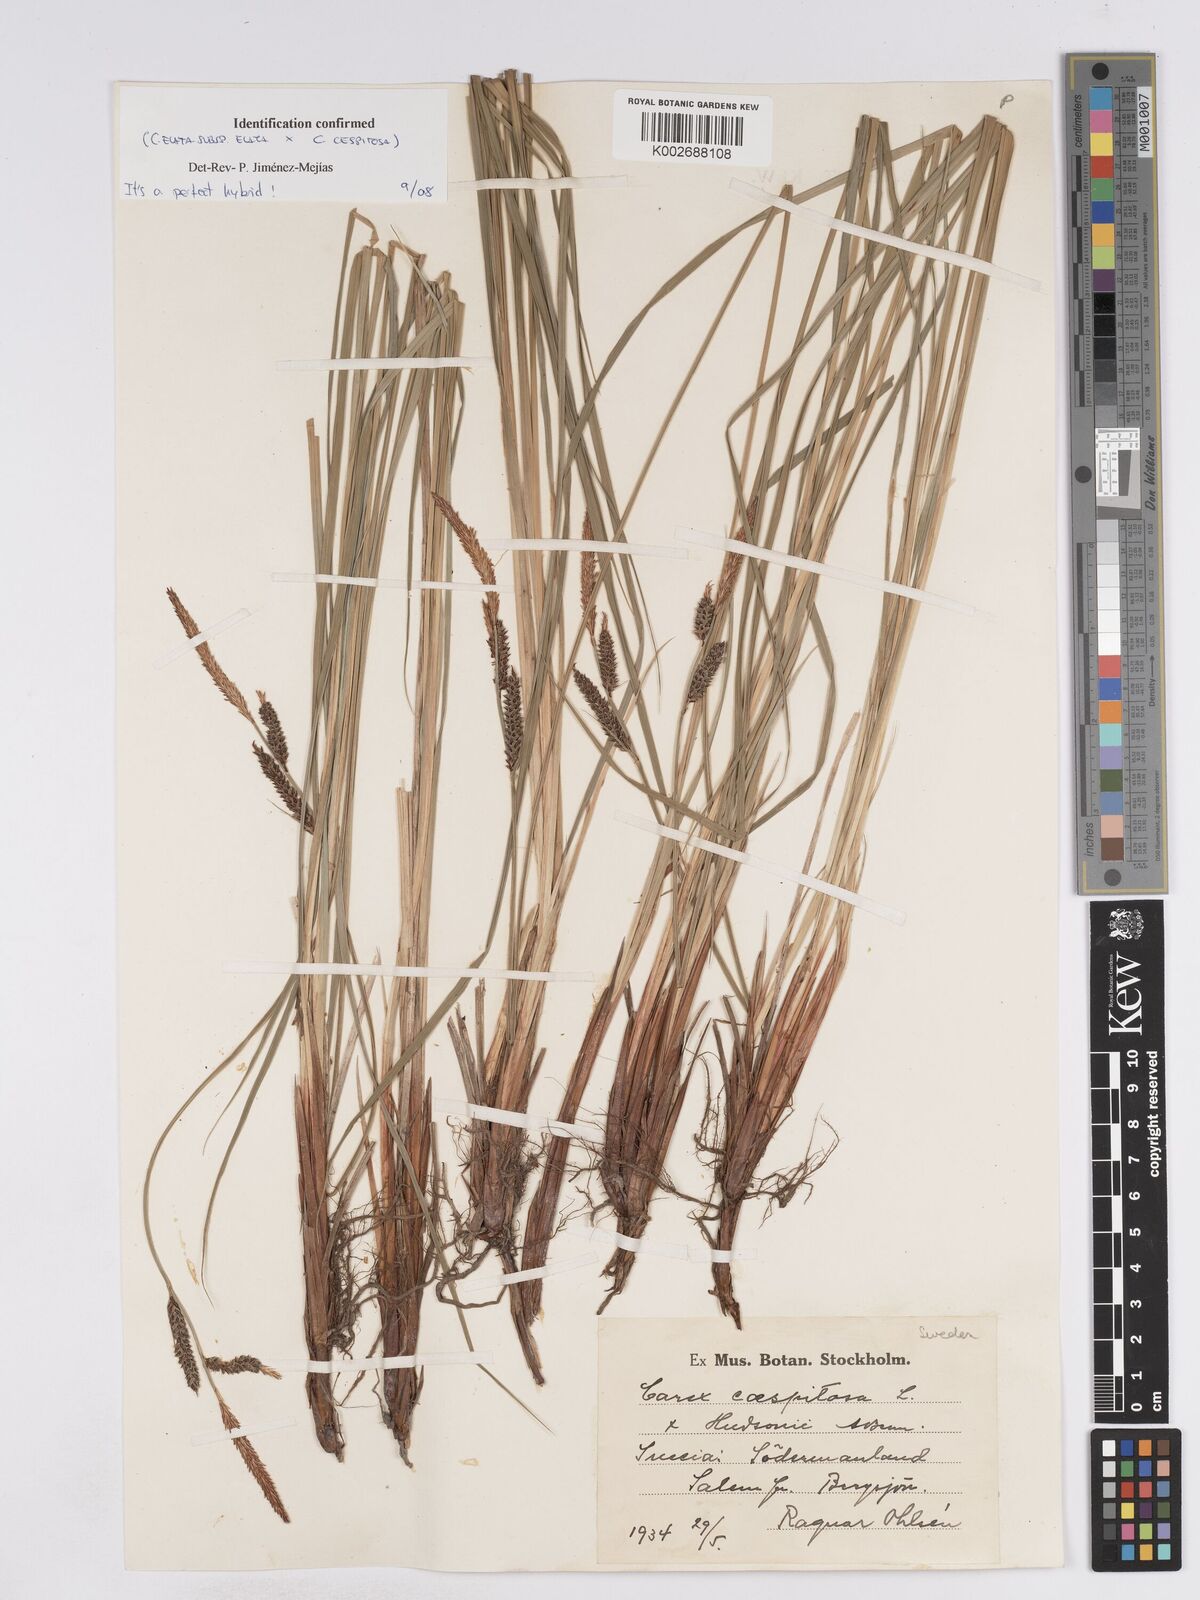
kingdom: Plantae
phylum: Tracheophyta
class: Liliopsida
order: Poales
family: Cyperaceae
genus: Carex
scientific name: Carex
